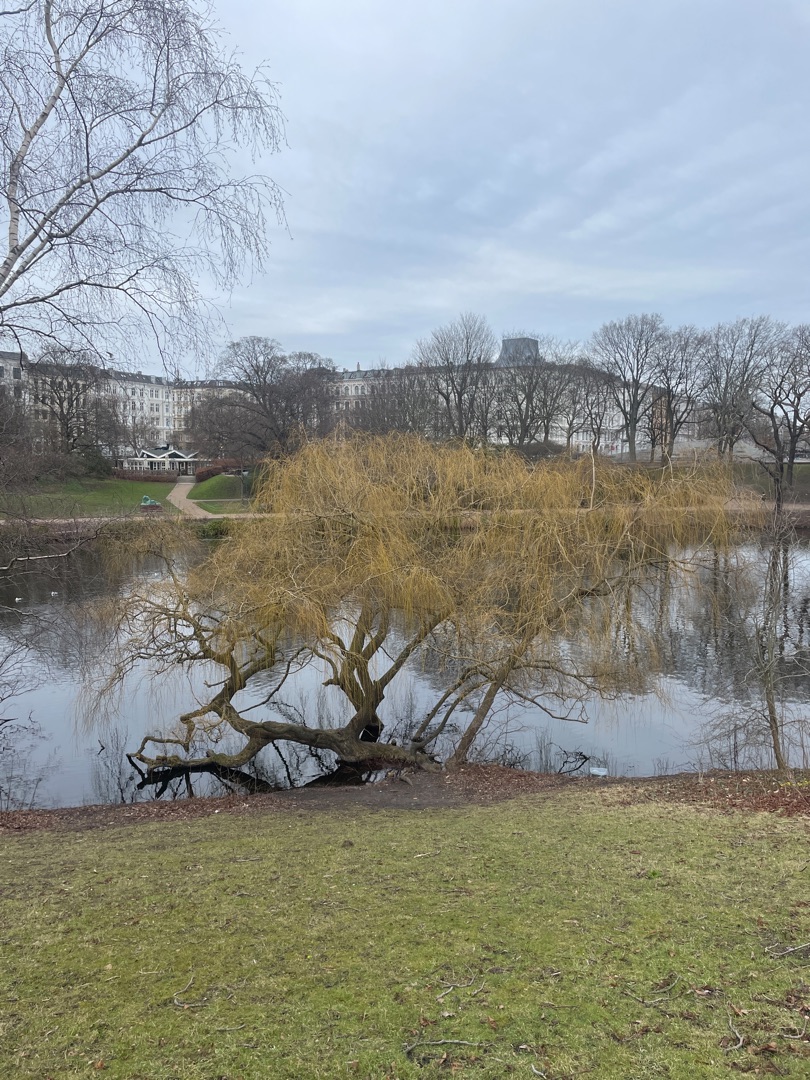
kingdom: Plantae
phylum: Tracheophyta
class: Magnoliopsida
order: Malpighiales
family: Salicaceae
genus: Salix
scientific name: Salix sepulcralis
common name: Hænge-pil
